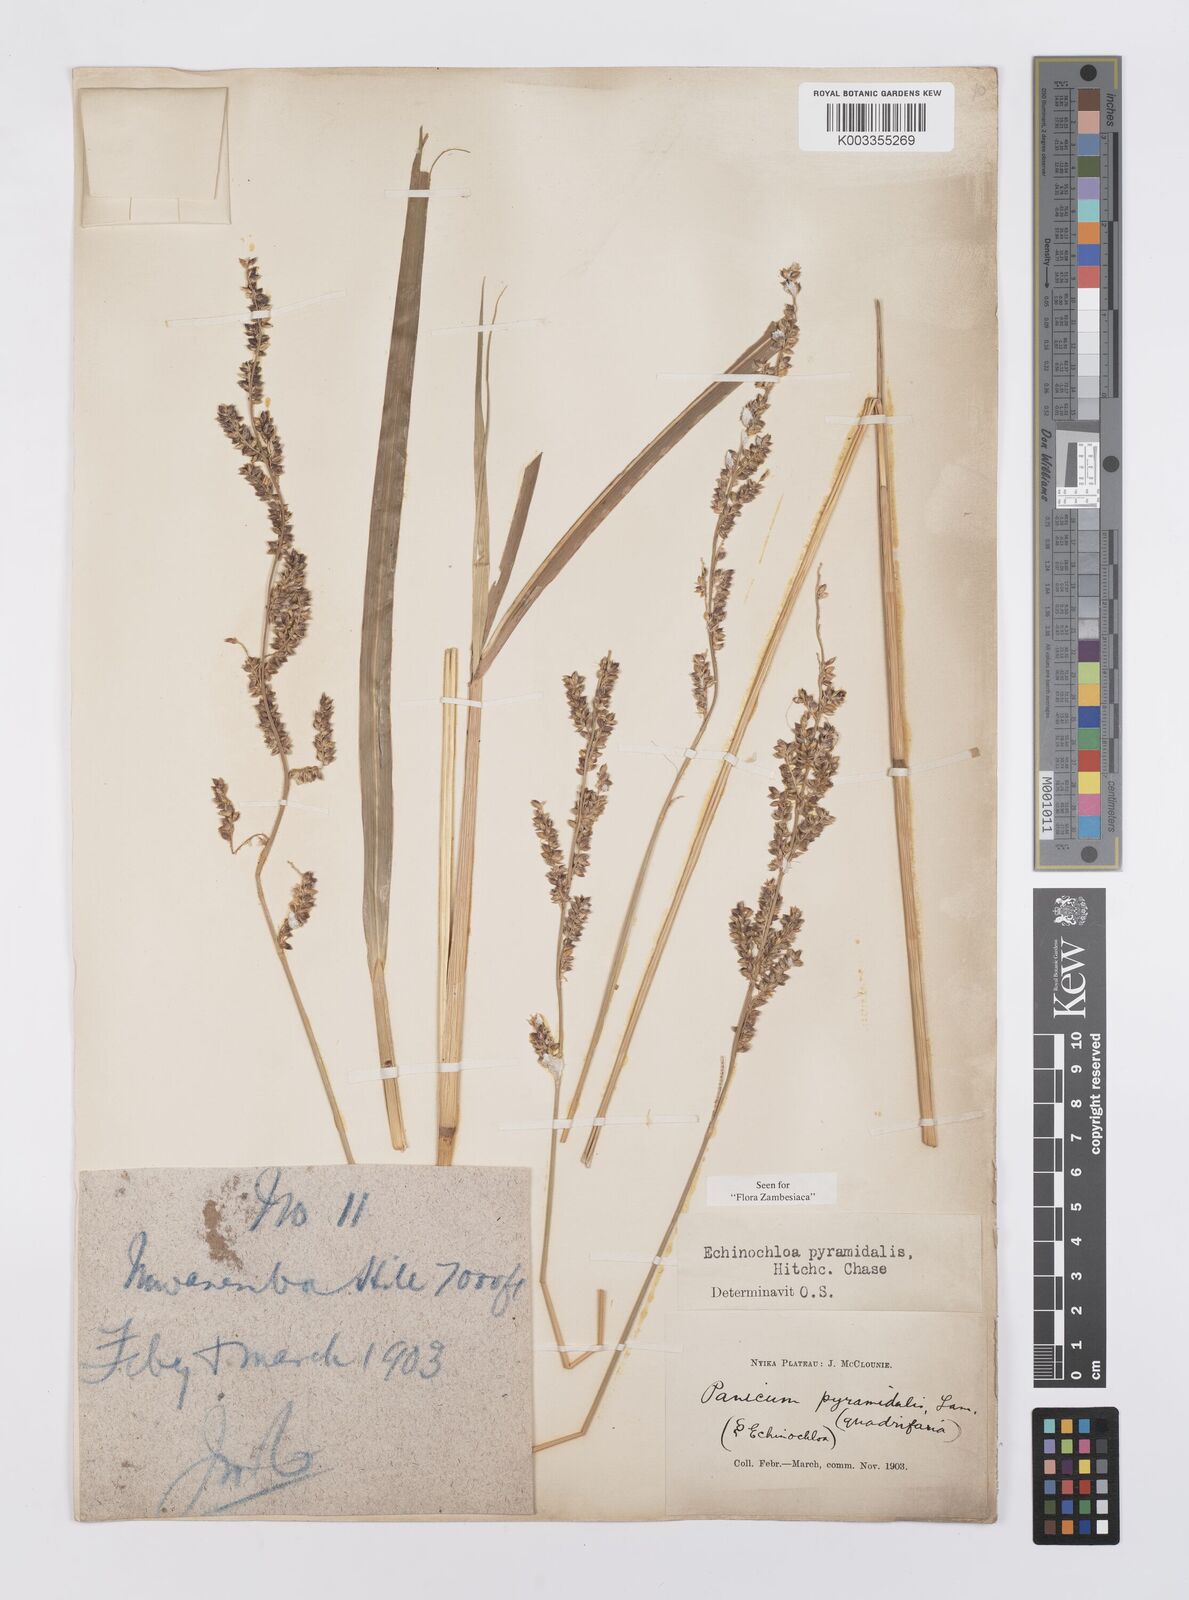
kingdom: Plantae
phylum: Tracheophyta
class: Liliopsida
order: Poales
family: Poaceae
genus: Echinochloa
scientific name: Echinochloa pyramidalis
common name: Antelope grass
